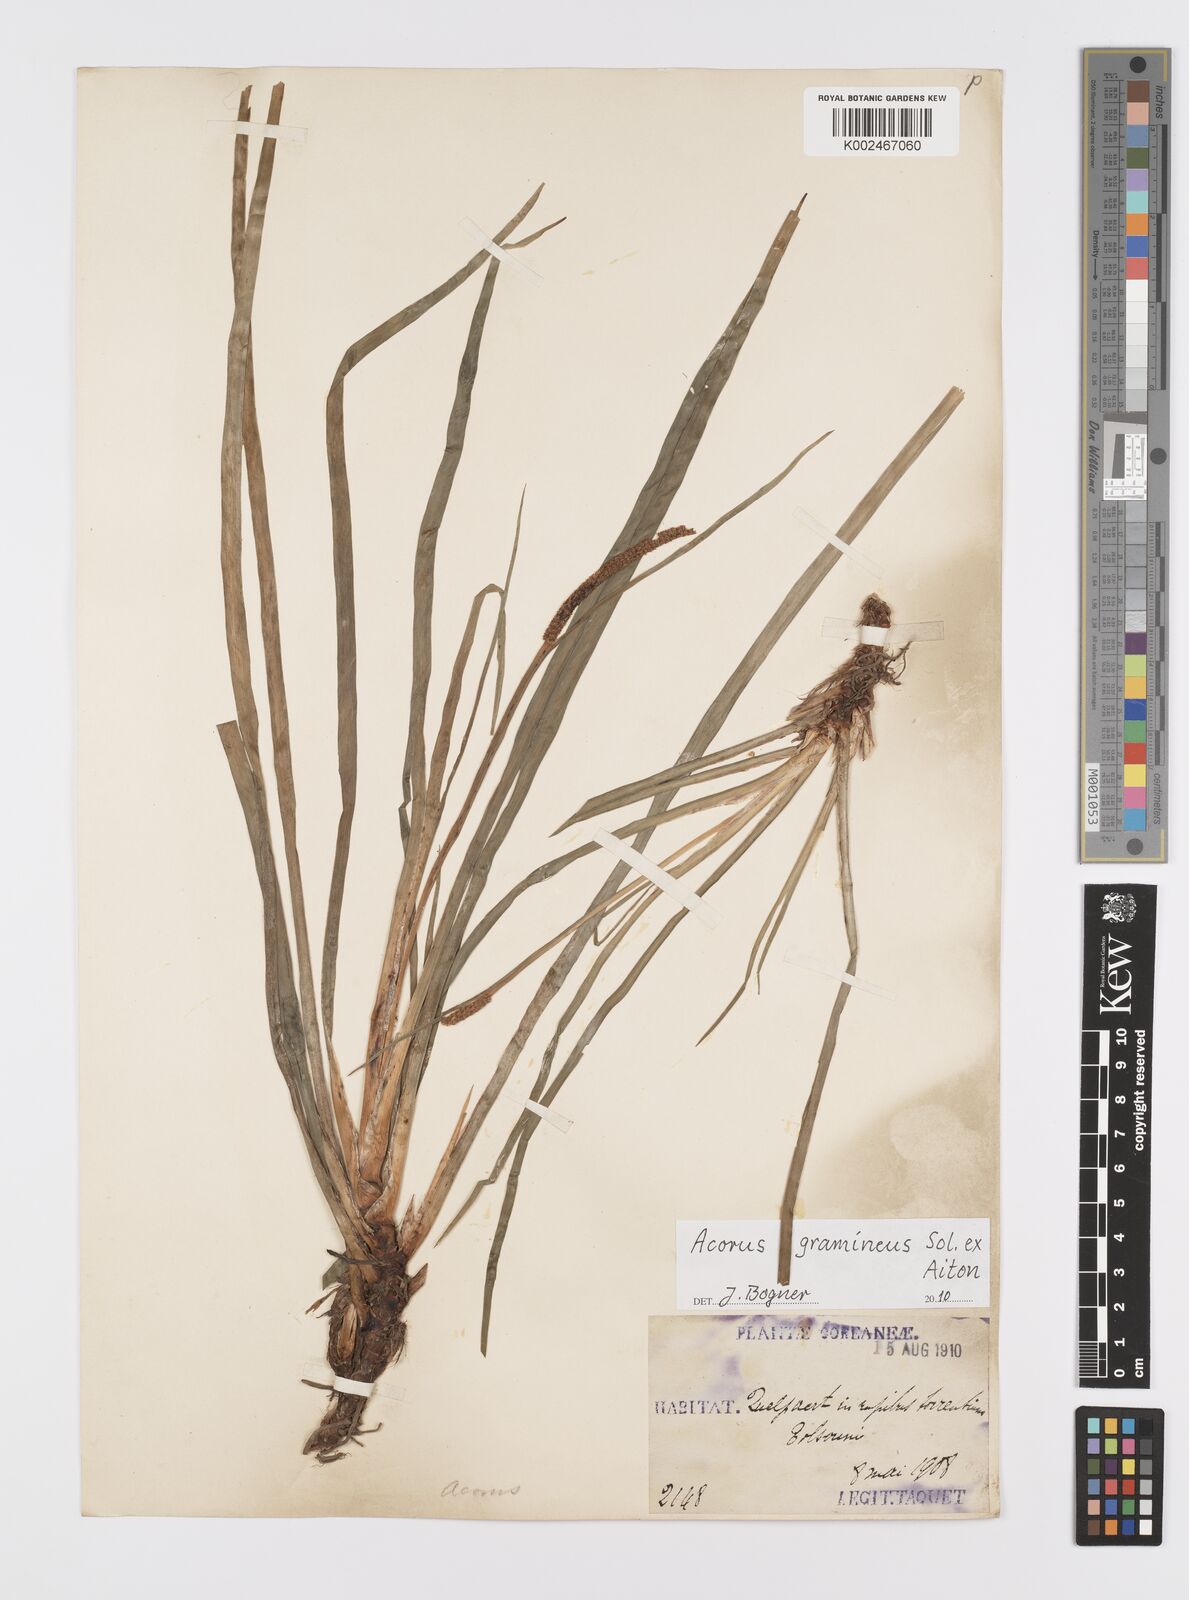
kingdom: Plantae
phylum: Tracheophyta
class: Liliopsida
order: Acorales
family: Acoraceae
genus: Acorus
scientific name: Acorus gramineus
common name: Slender sweet-flag
